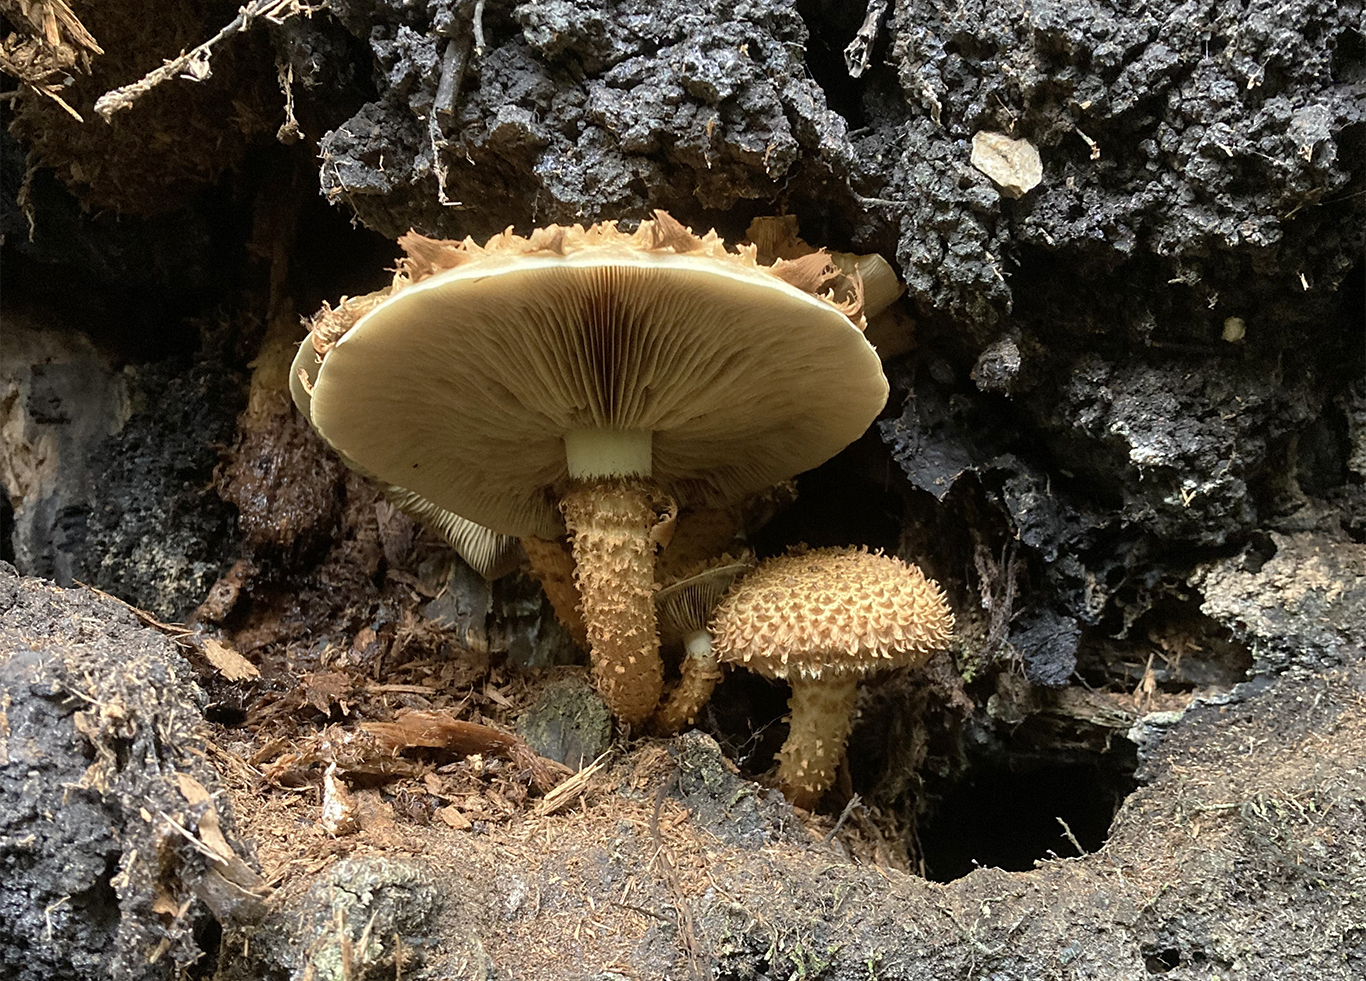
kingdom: Fungi
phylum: Basidiomycota
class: Agaricomycetes
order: Agaricales
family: Strophariaceae
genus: Pholiota
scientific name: Pholiota squarrosa
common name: krumskællet skælhat
